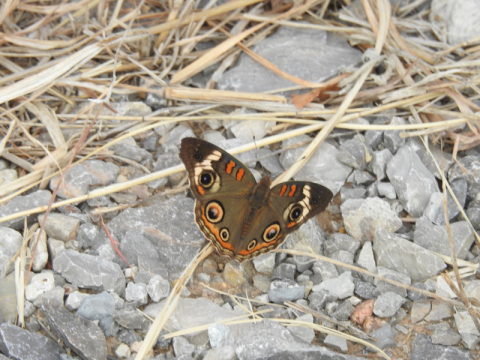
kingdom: Animalia
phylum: Arthropoda
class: Insecta
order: Lepidoptera
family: Nymphalidae
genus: Junonia
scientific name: Junonia coenia
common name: Common Buckeye
